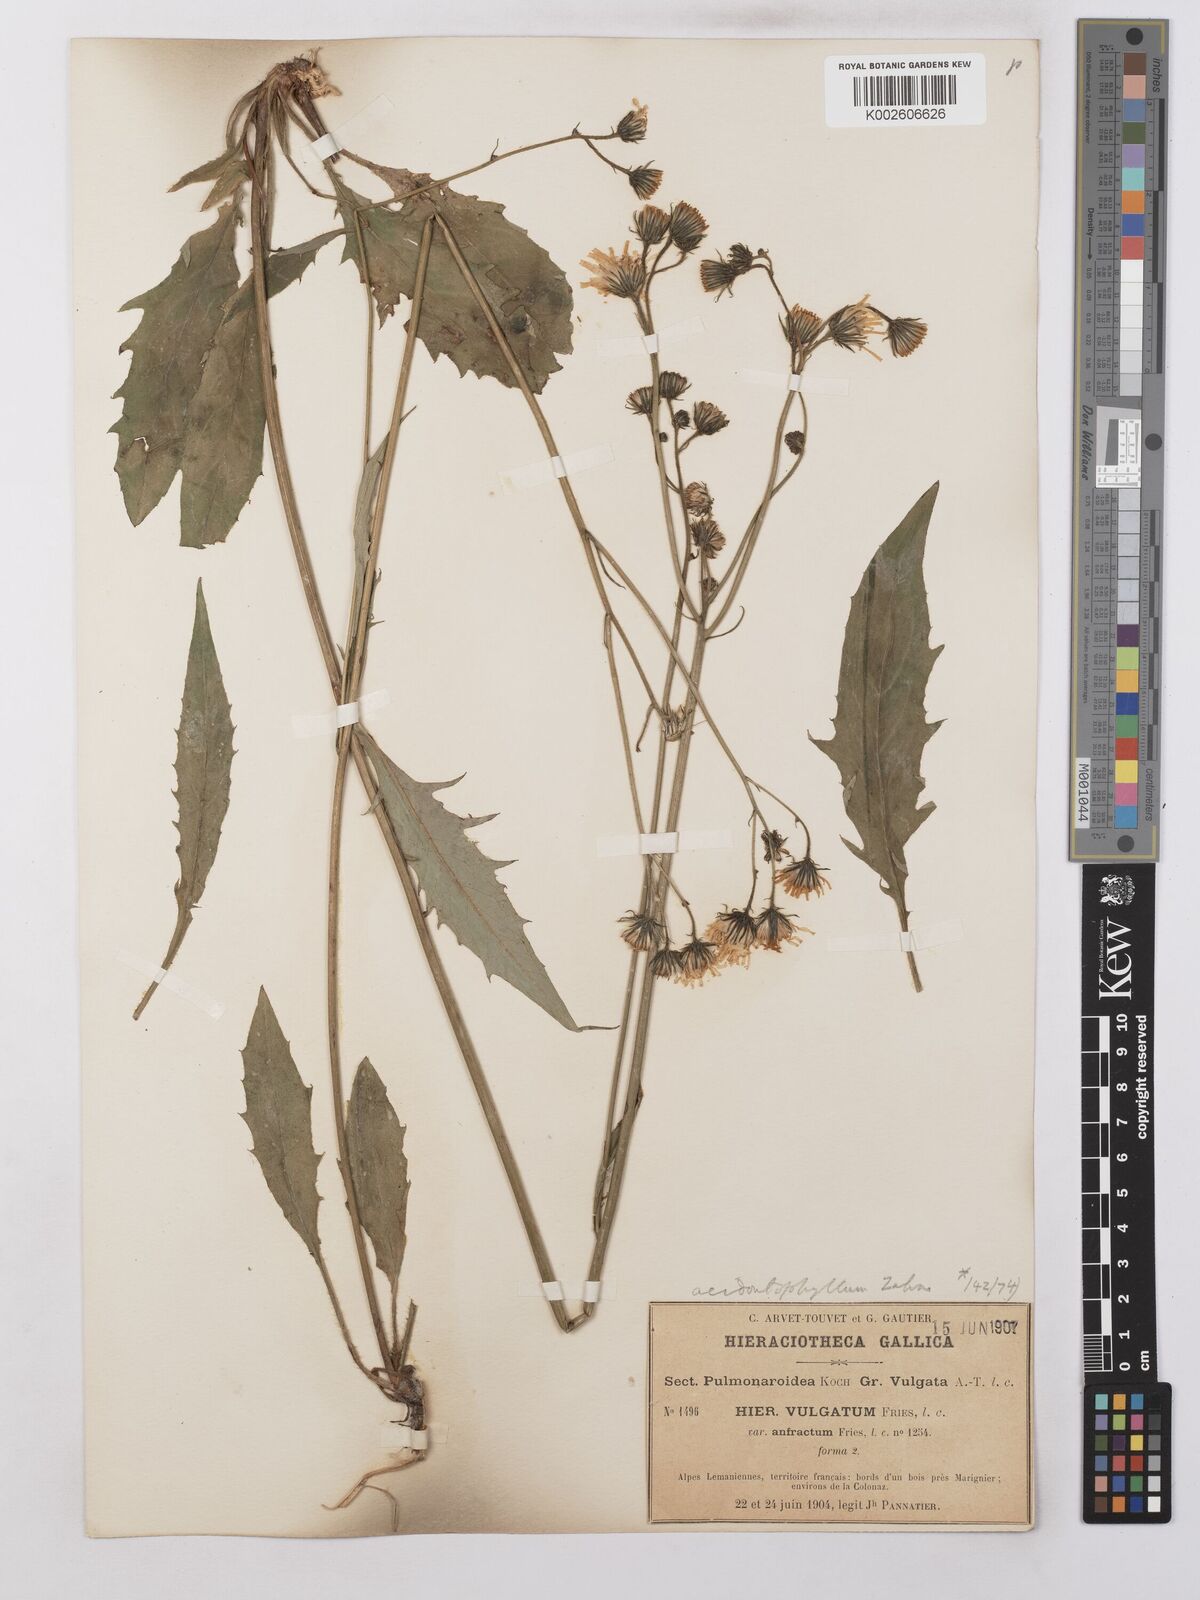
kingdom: Plantae
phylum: Tracheophyta
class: Magnoliopsida
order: Asterales
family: Asteraceae
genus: Hieracium
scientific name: Hieracium lachenalii
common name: Common hawkweed
